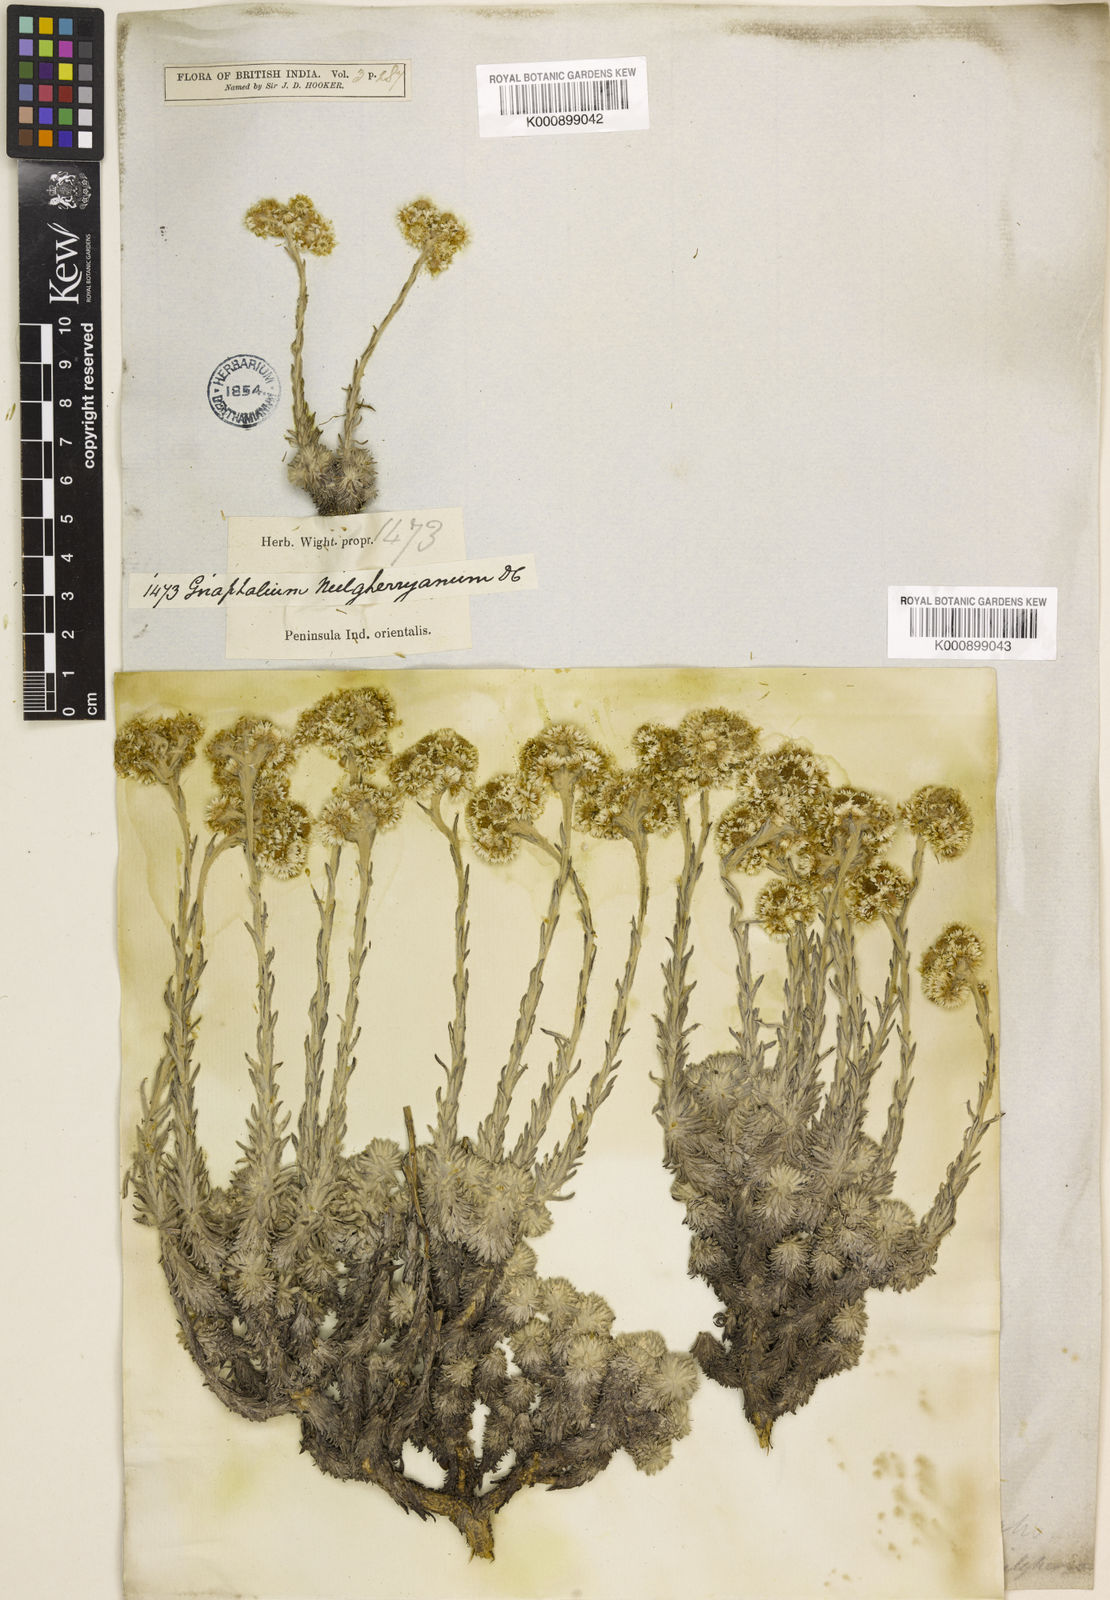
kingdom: Plantae
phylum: Tracheophyta
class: Magnoliopsida
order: Asterales
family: Asteraceae
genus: Anaphalis
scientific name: Anaphalis neelgerryana
